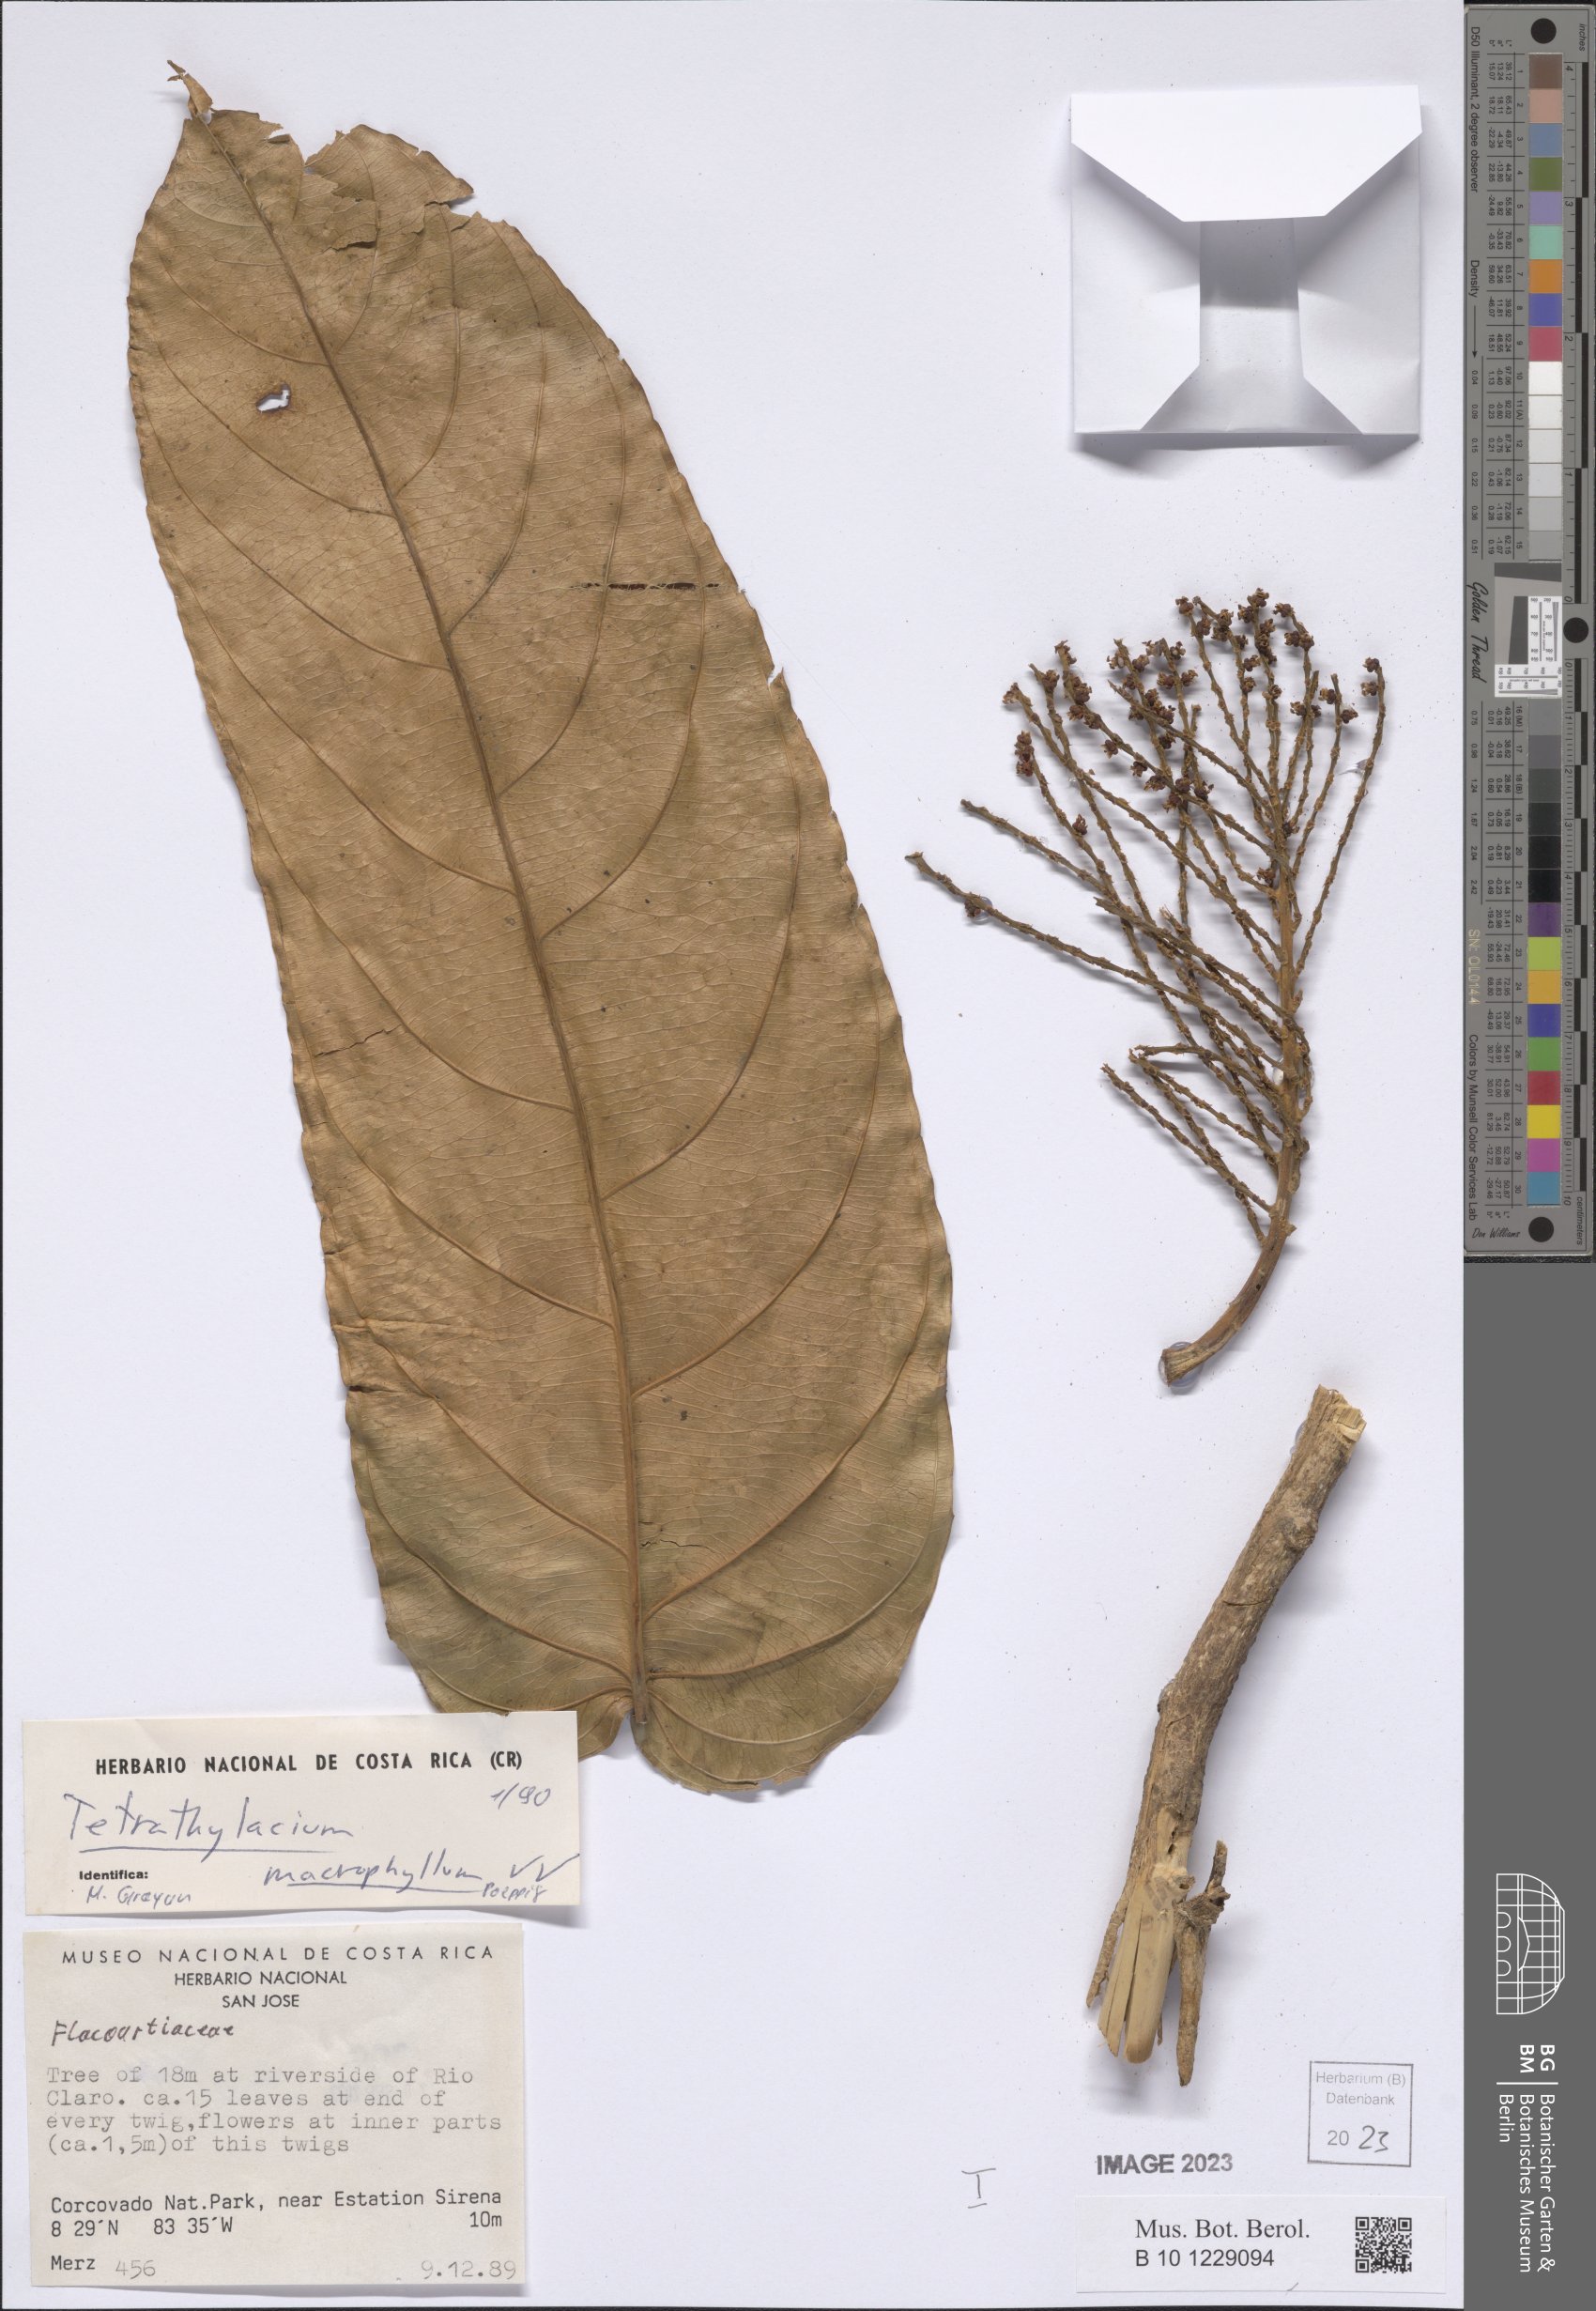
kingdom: Plantae
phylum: Tracheophyta
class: Magnoliopsida
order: Malpighiales
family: Salicaceae
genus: Tetrathylacium
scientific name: Tetrathylacium macrophyllum
